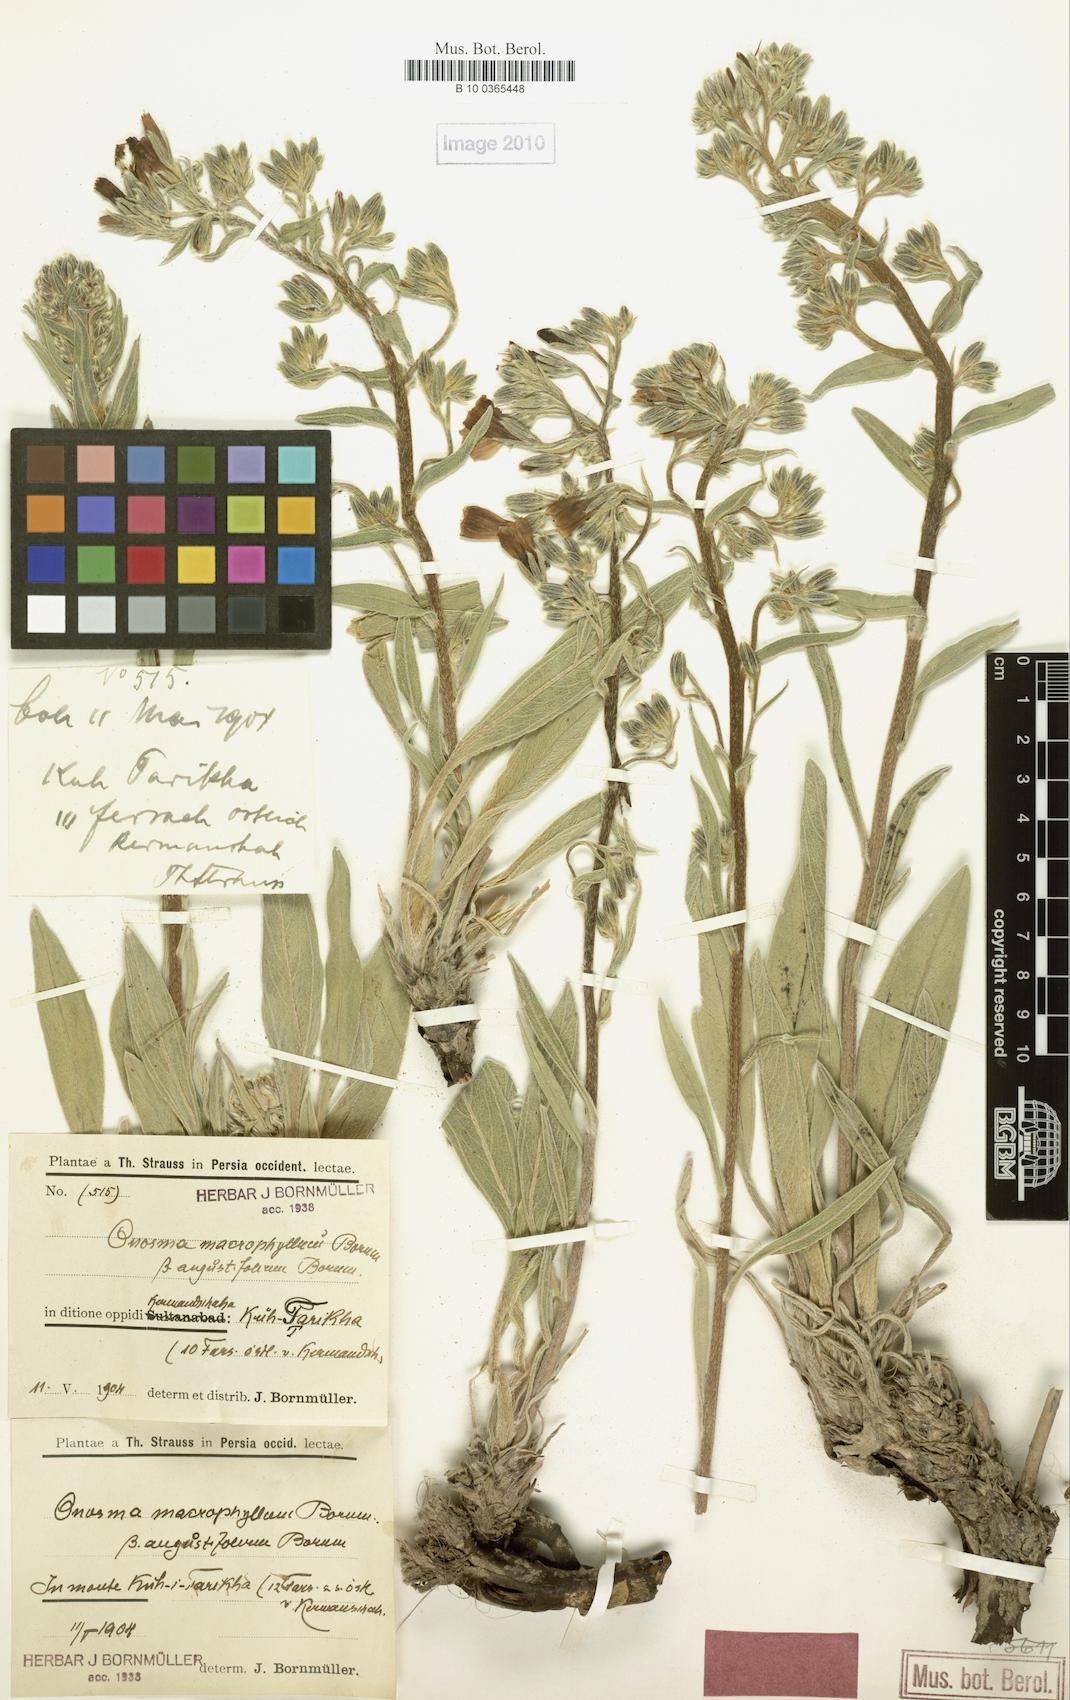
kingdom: Plantae
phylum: Tracheophyta
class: Magnoliopsida
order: Boraginales
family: Boraginaceae
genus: Onosma
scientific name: Onosma macrophylla
